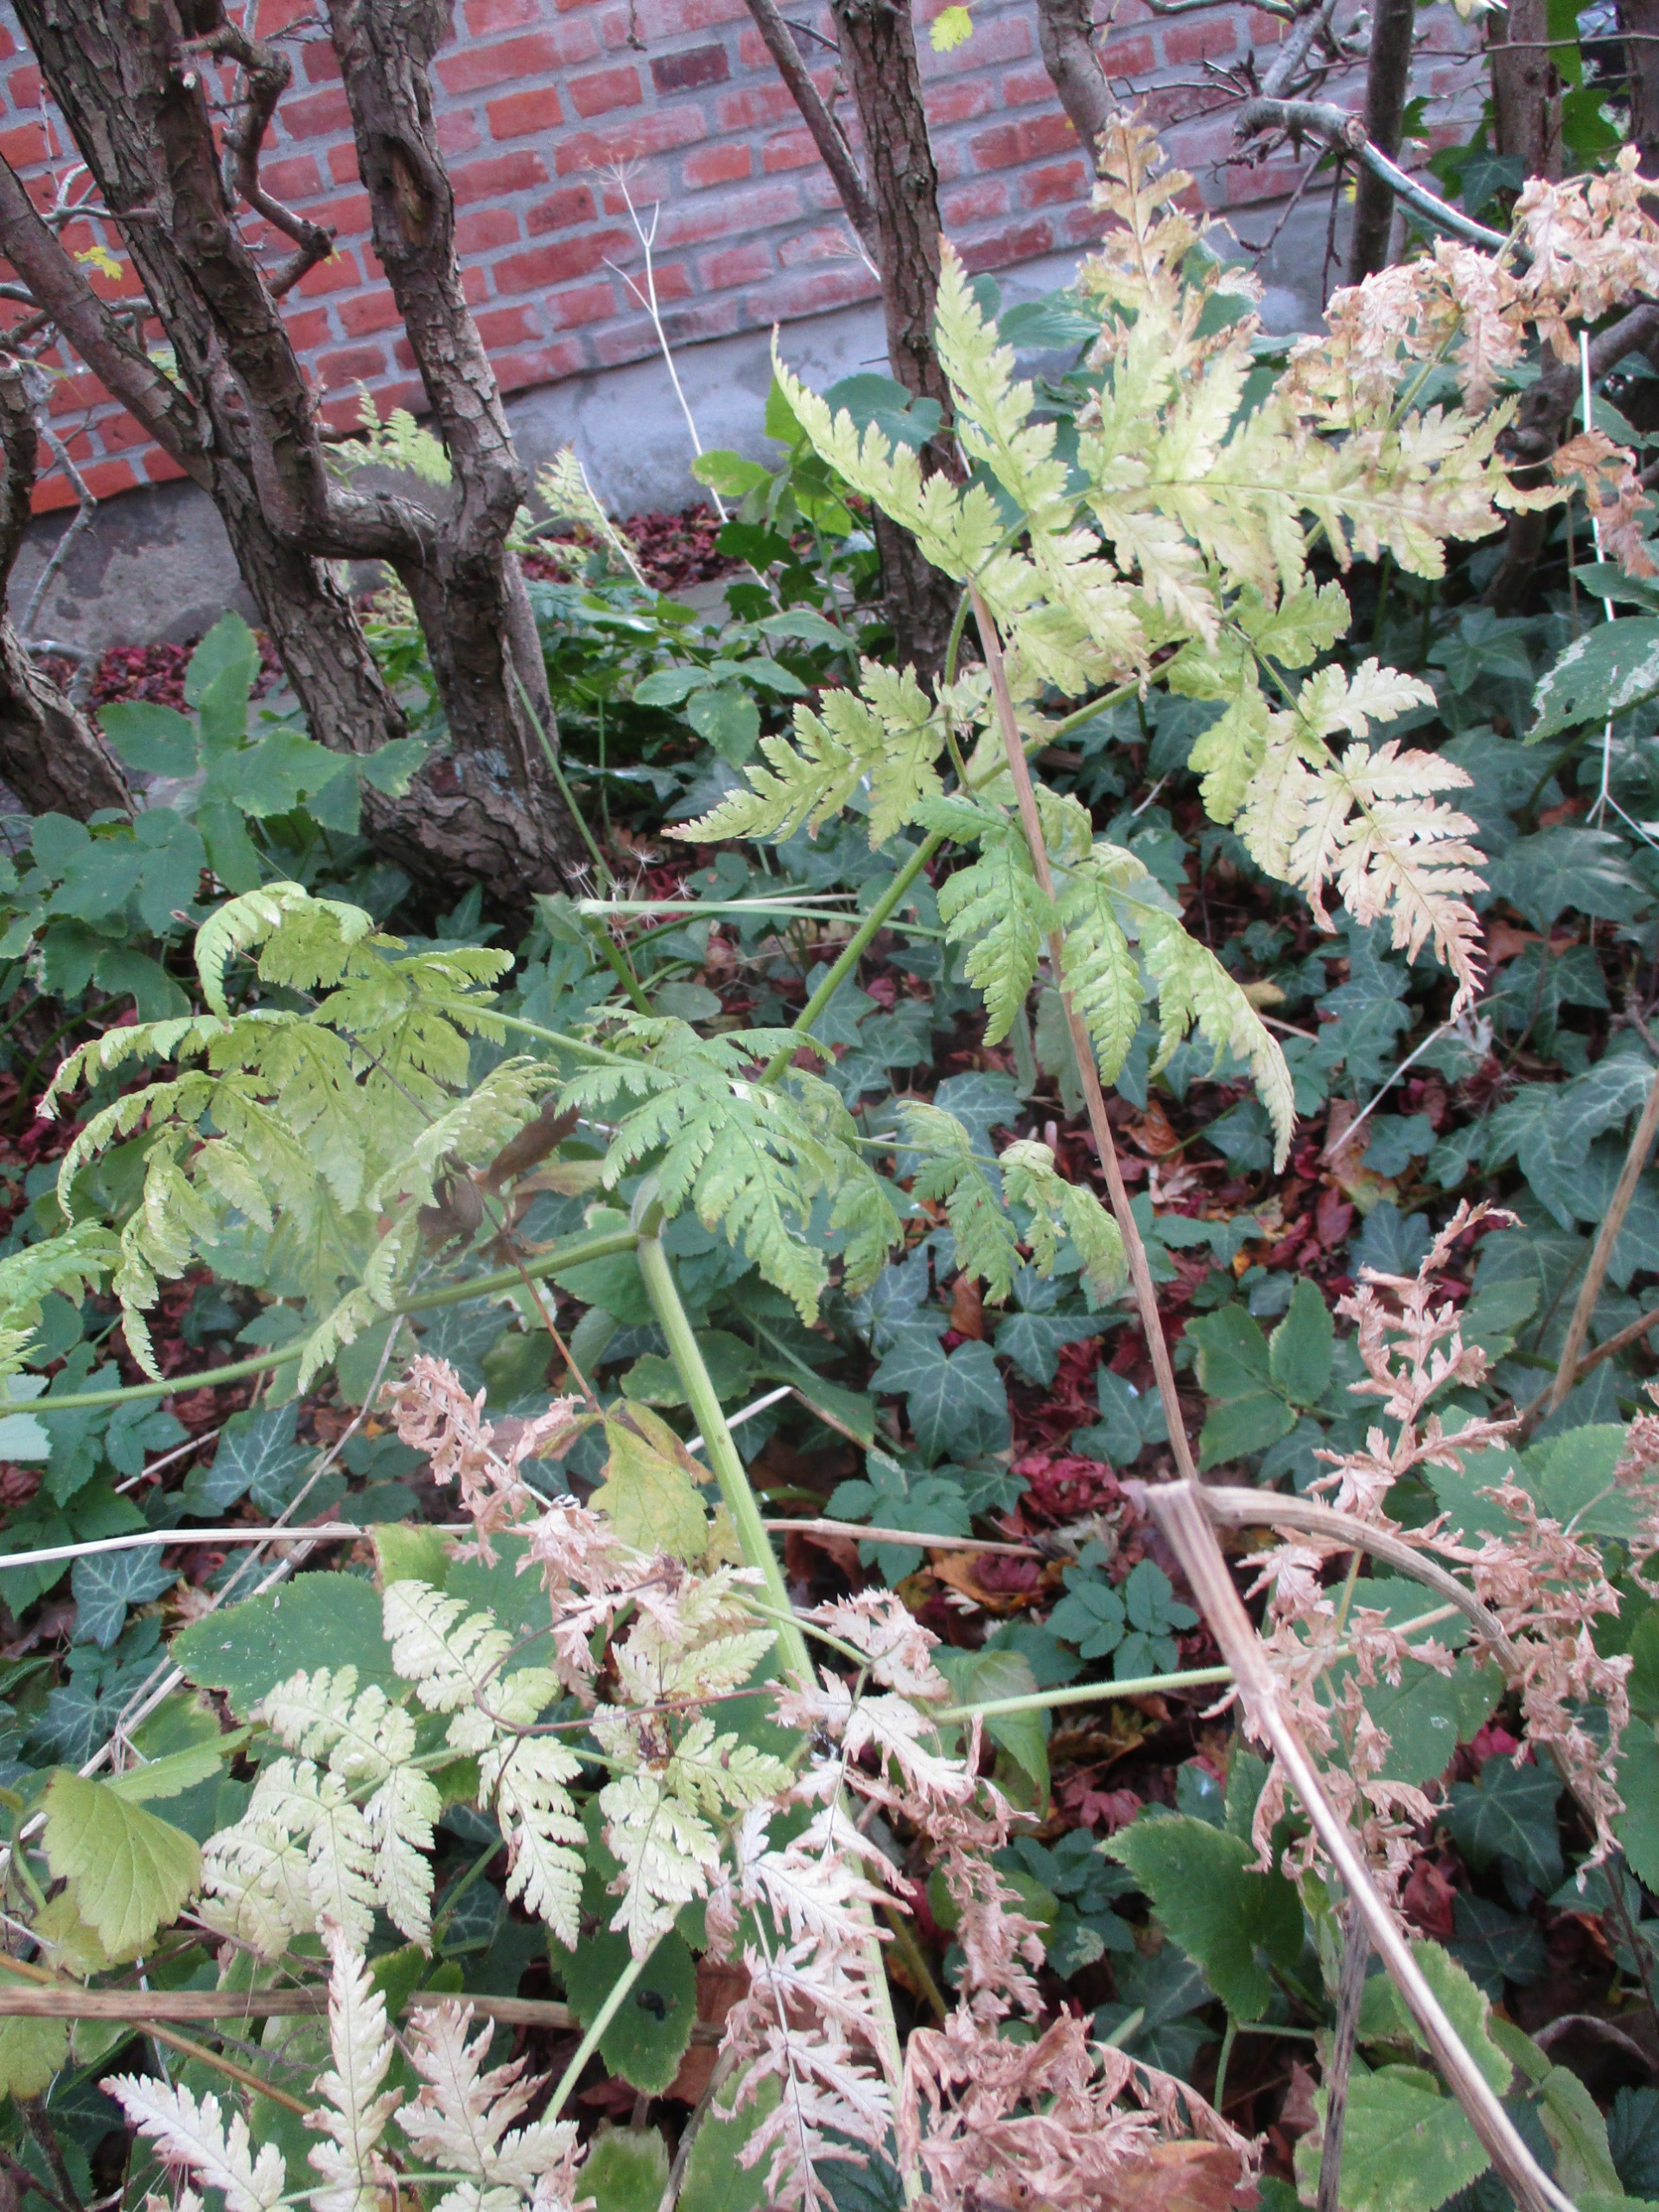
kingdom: Plantae
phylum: Tracheophyta
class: Magnoliopsida
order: Apiales
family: Apiaceae
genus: Myrrhis
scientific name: Myrrhis odorata
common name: Sødskærm
